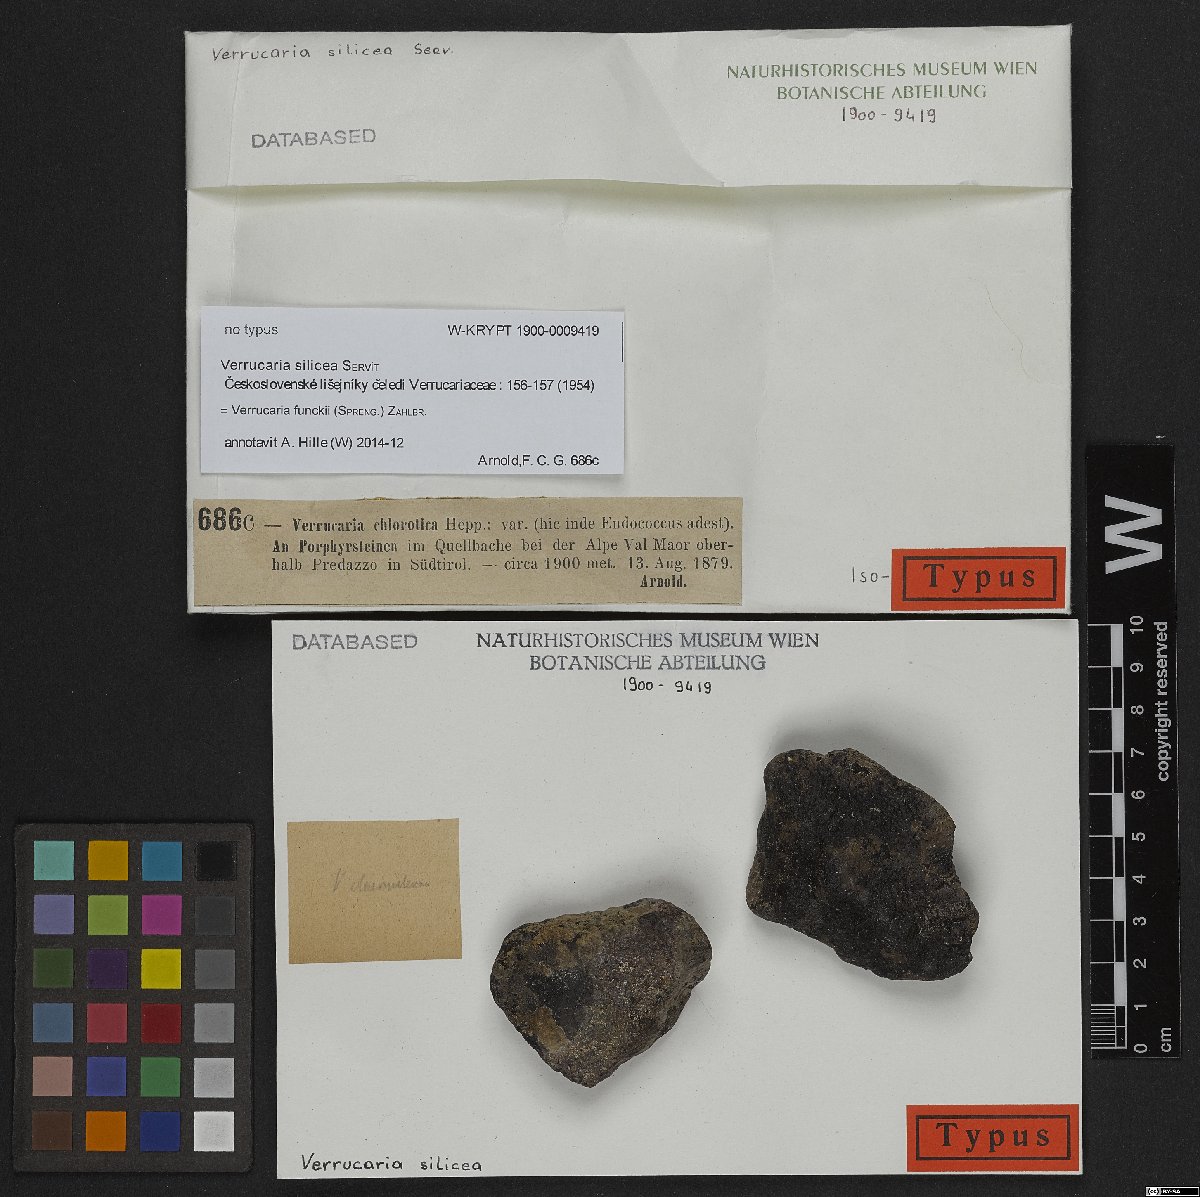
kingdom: Fungi
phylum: Ascomycota
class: Eurotiomycetes
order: Verrucariales
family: Verrucariaceae
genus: Verrucaria
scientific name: Verrucaria funckii
